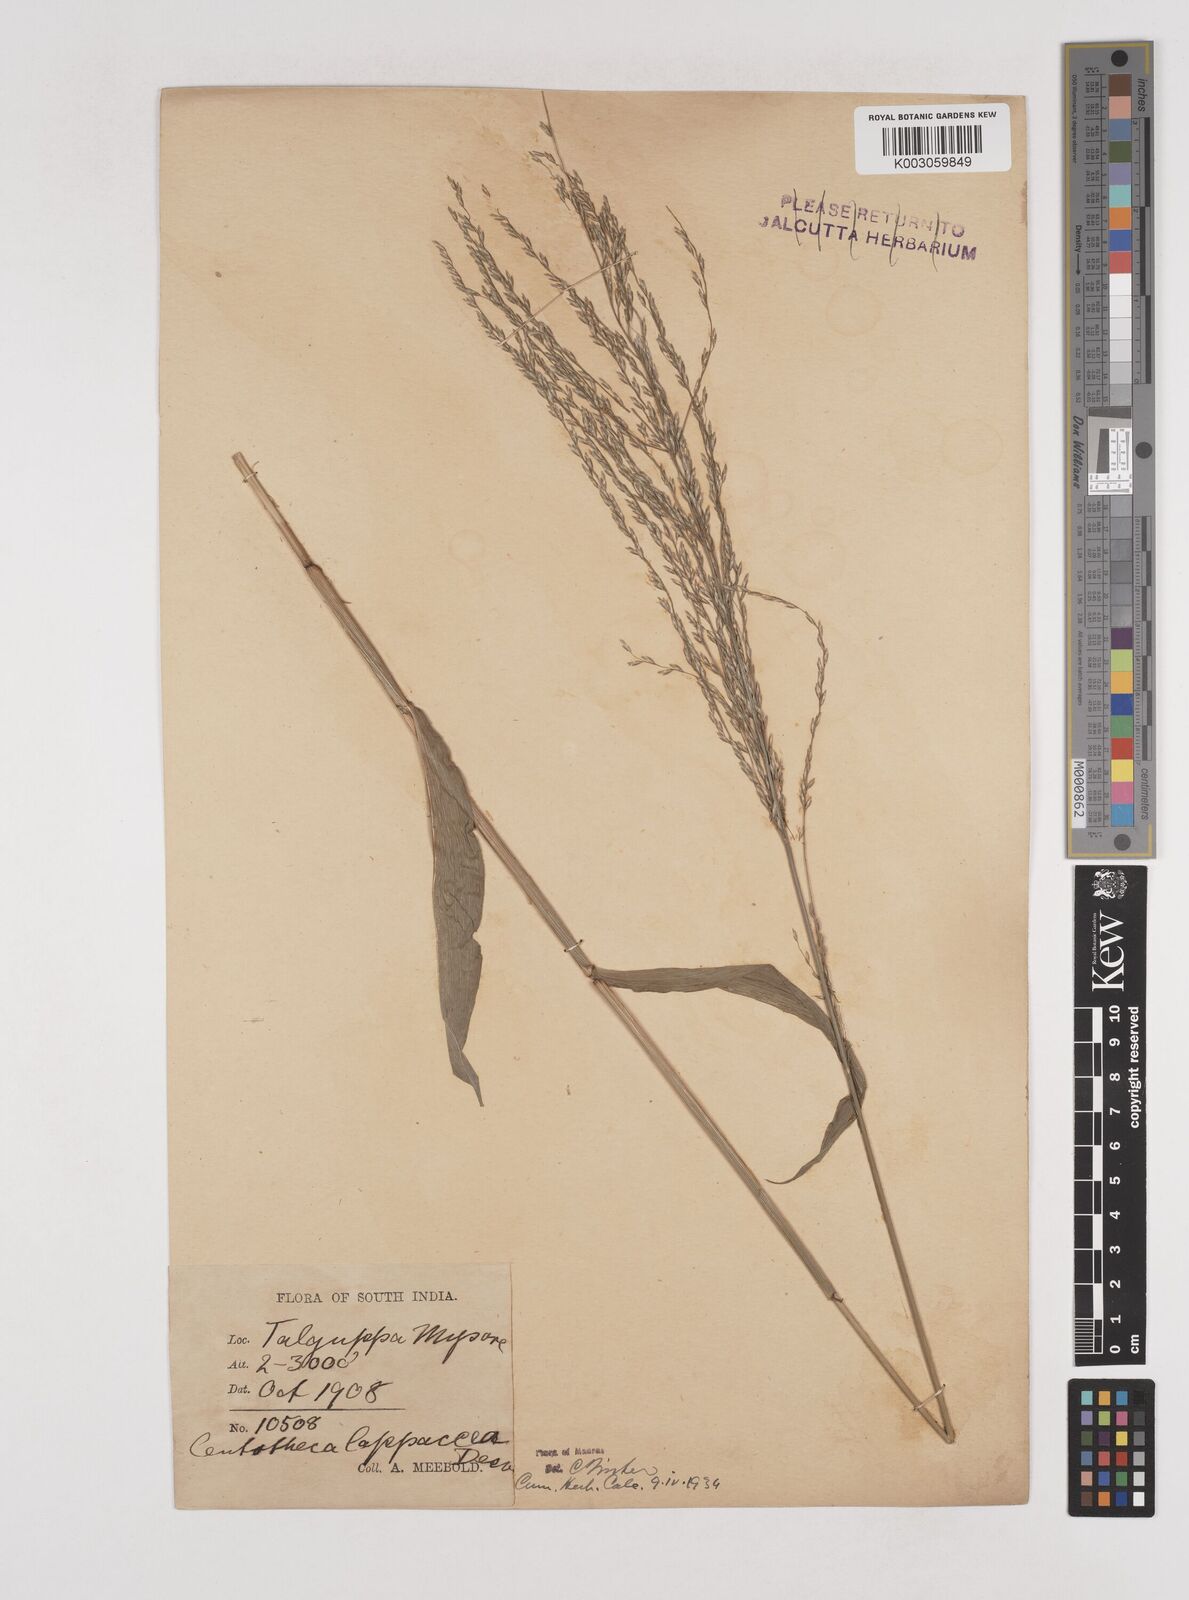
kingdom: Plantae
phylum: Tracheophyta
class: Liliopsida
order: Poales
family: Poaceae
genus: Centotheca
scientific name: Centotheca lappacea
